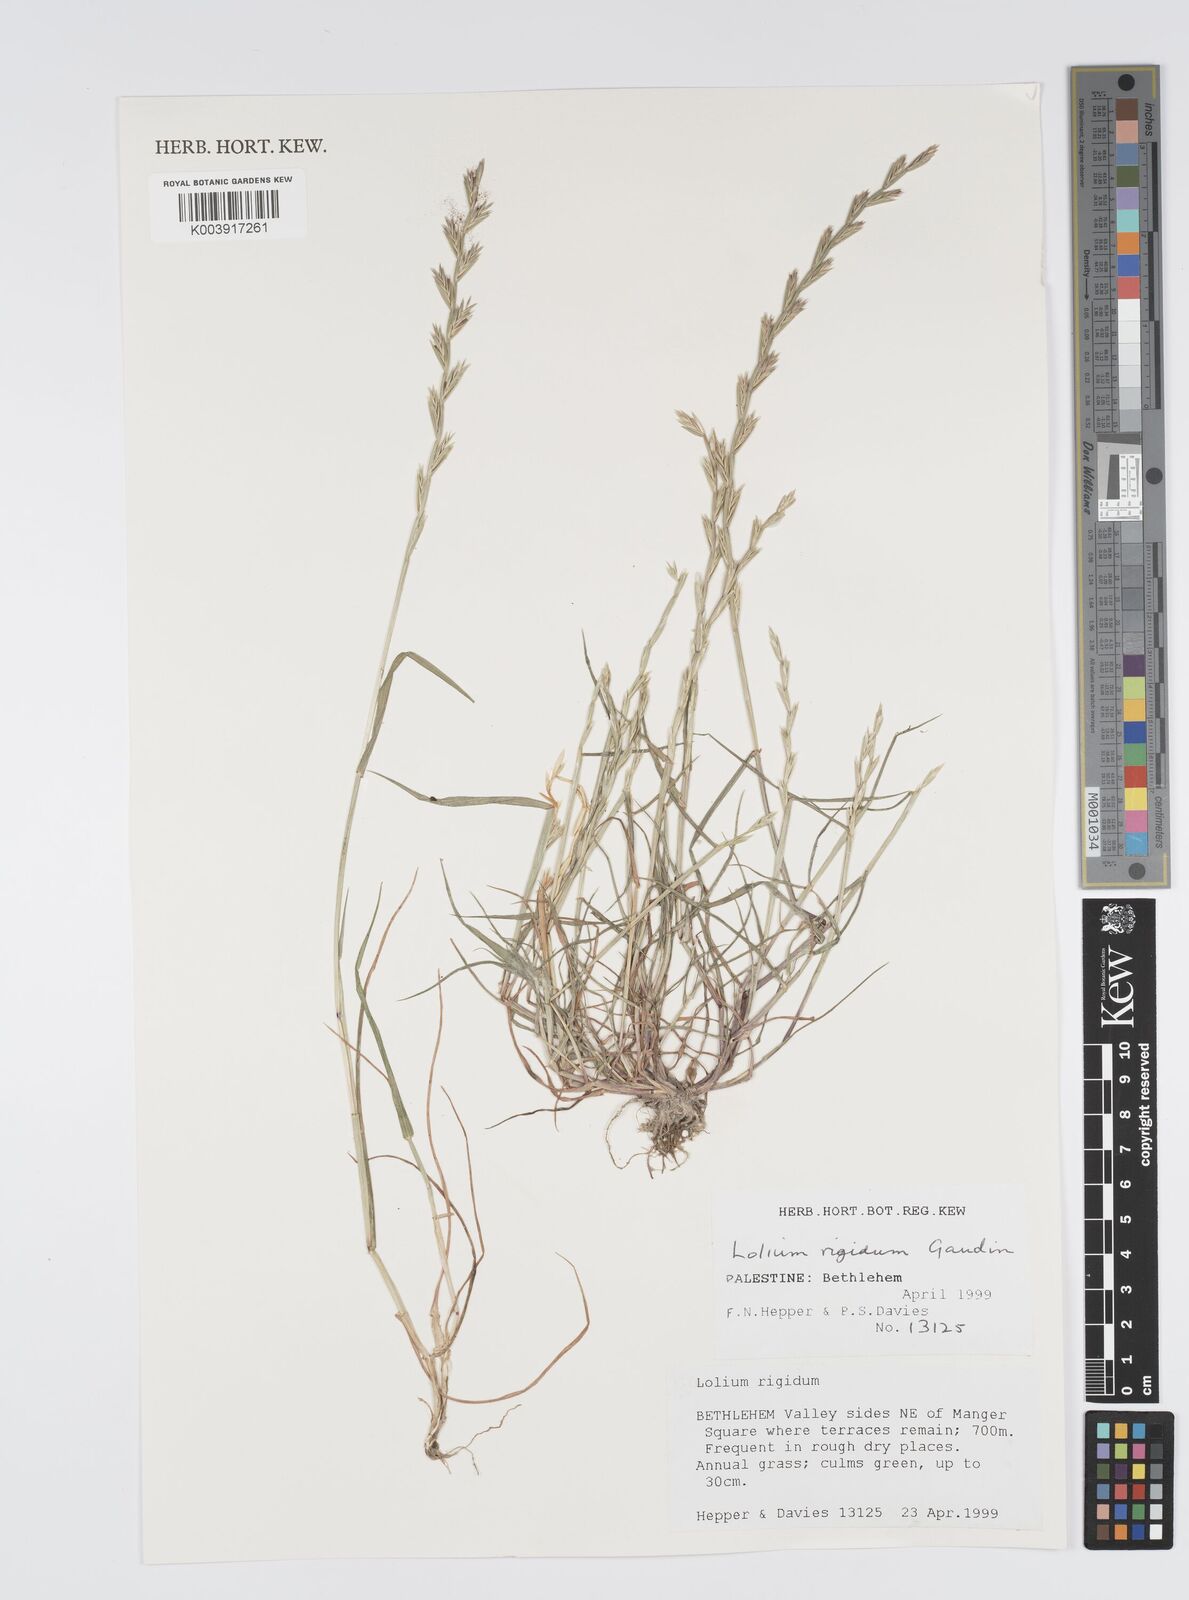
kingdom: Plantae
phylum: Tracheophyta
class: Liliopsida
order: Poales
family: Poaceae
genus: Lolium
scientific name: Lolium rigidum
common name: Wimmera ryegrass
